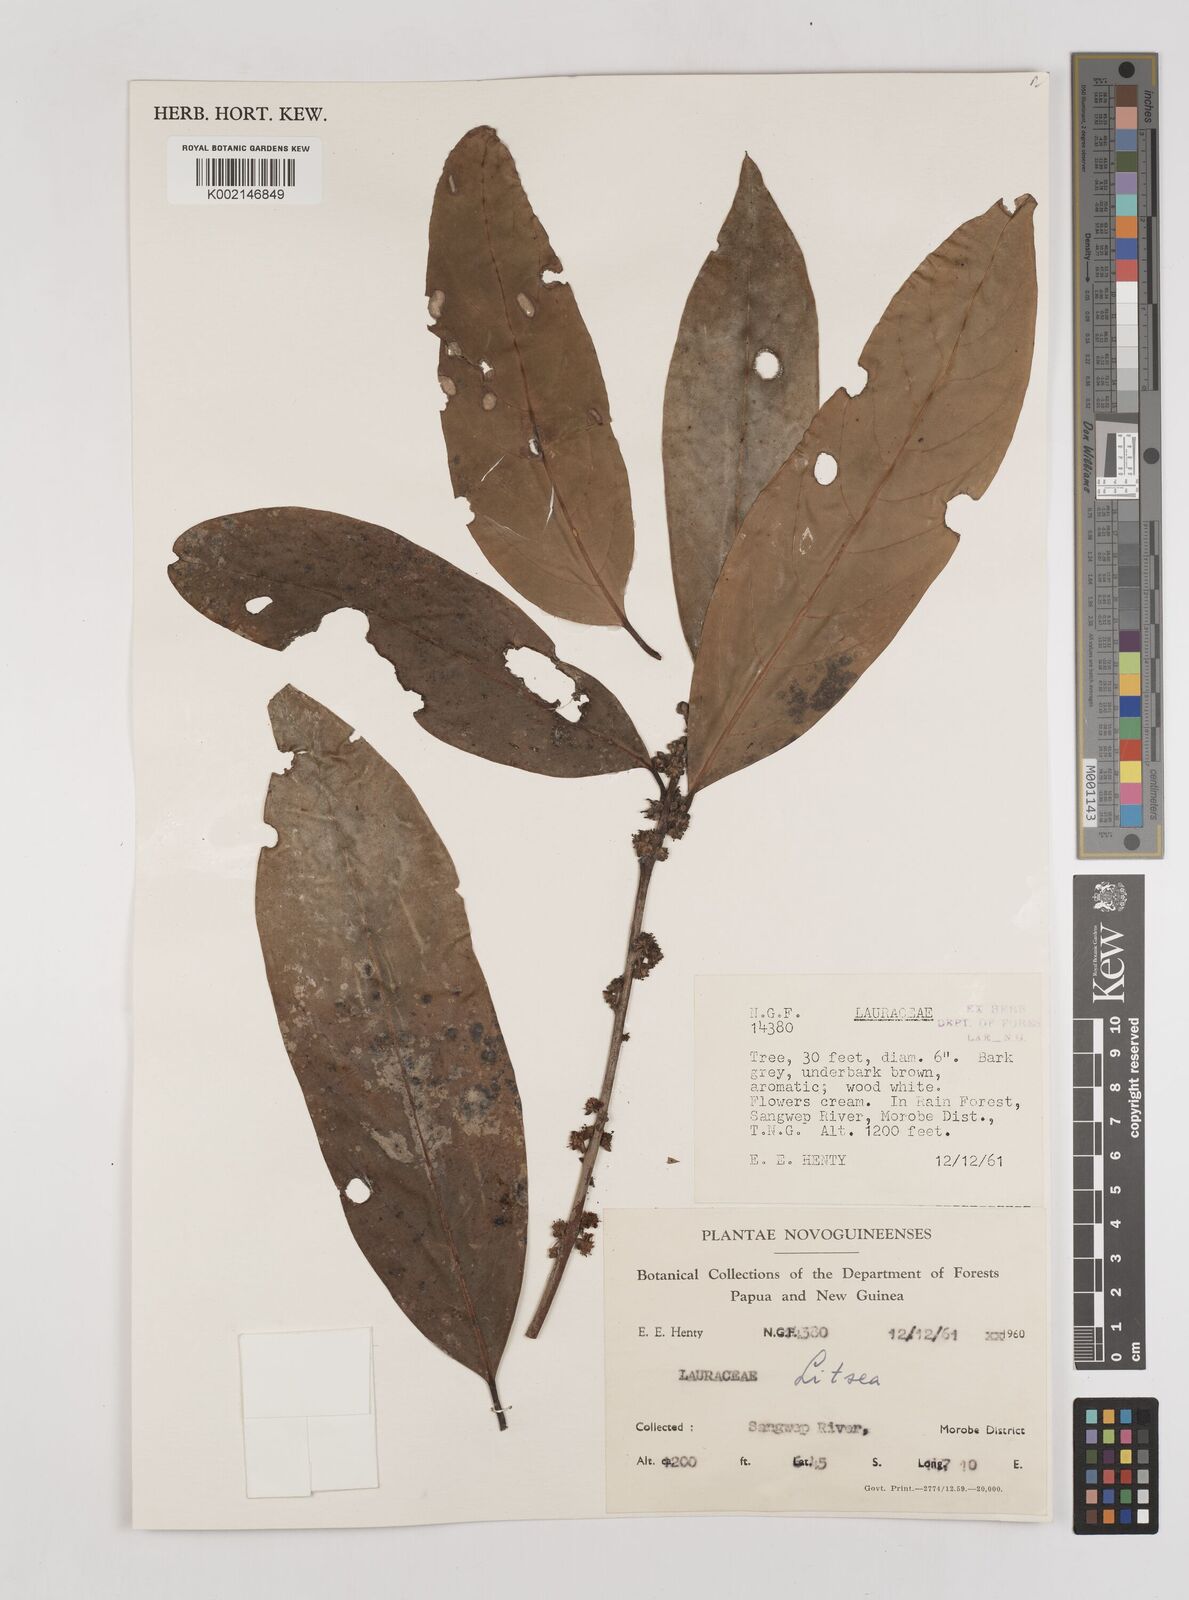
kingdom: Plantae
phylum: Tracheophyta
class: Magnoliopsida
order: Laurales
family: Lauraceae
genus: Litsea
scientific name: Litsea
